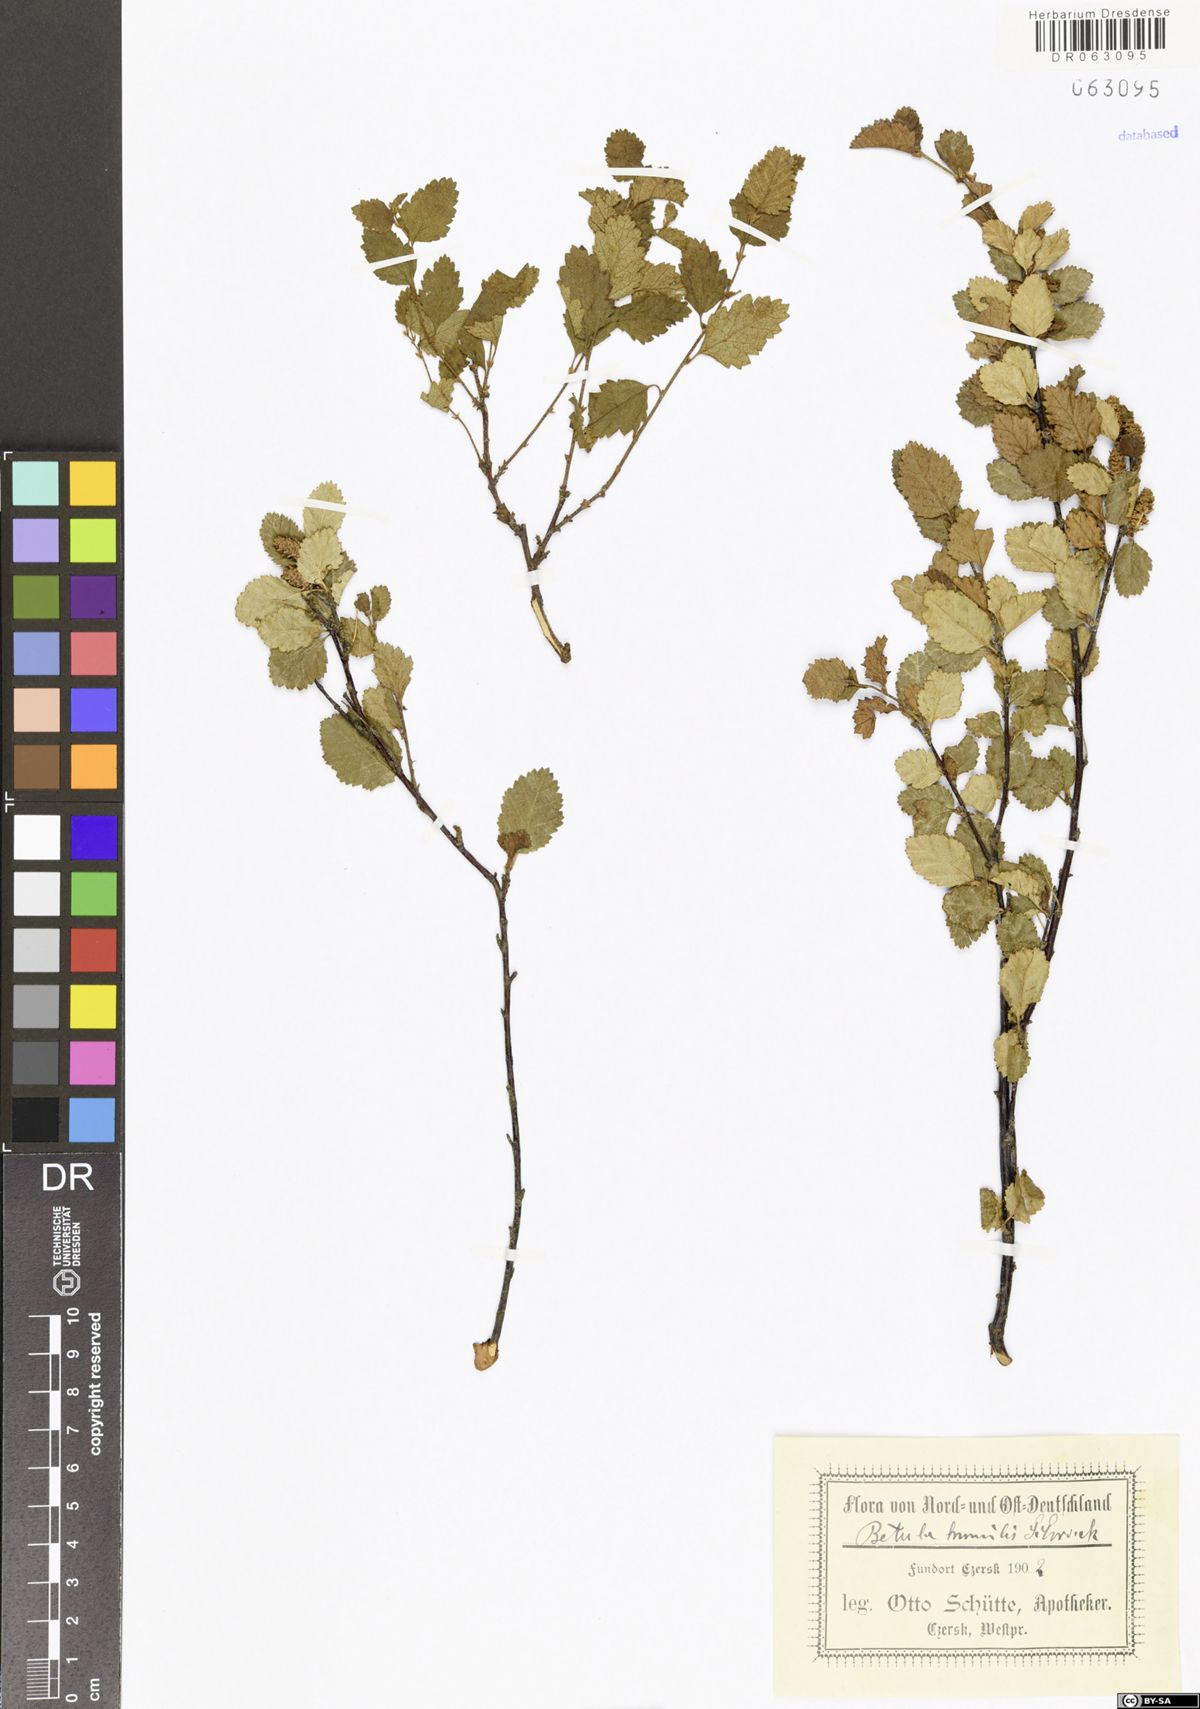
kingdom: Plantae
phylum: Tracheophyta
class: Magnoliopsida
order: Fagales
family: Betulaceae
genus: Betula
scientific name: Betula humilis
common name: Shrubby birch
